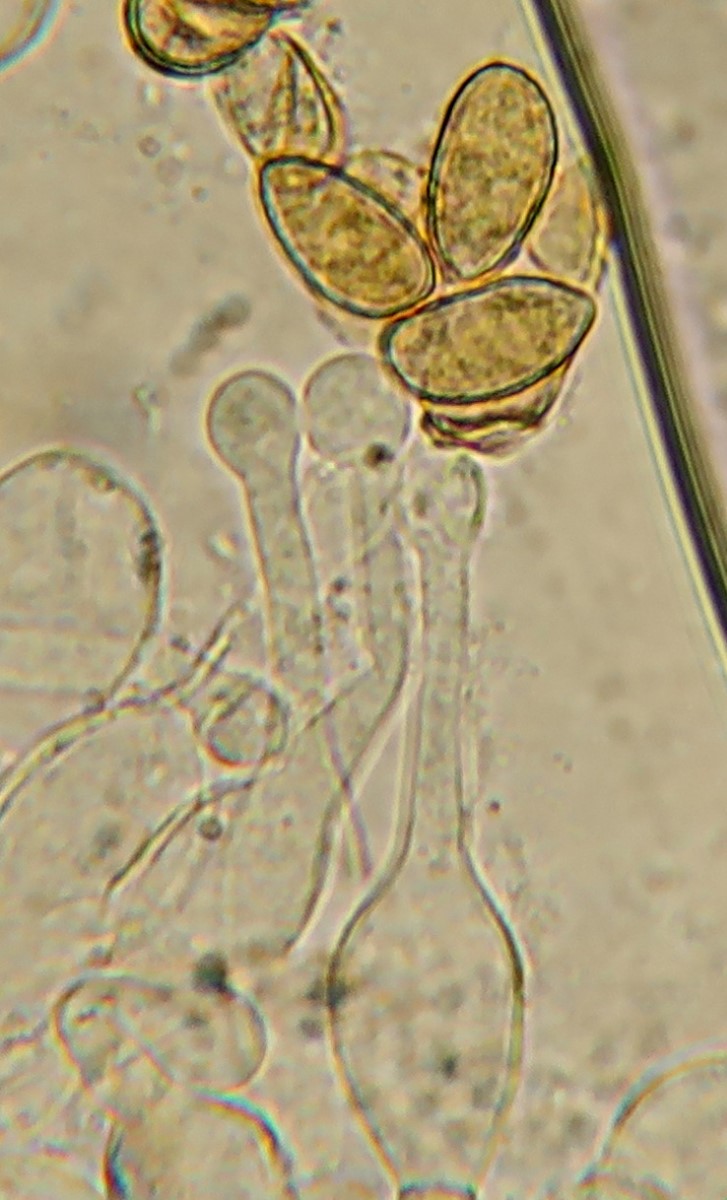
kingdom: Fungi
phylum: Basidiomycota
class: Agaricomycetes
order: Agaricales
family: Hymenogastraceae
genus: Galerina
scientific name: Galerina clavata
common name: kær-hjelmhat
